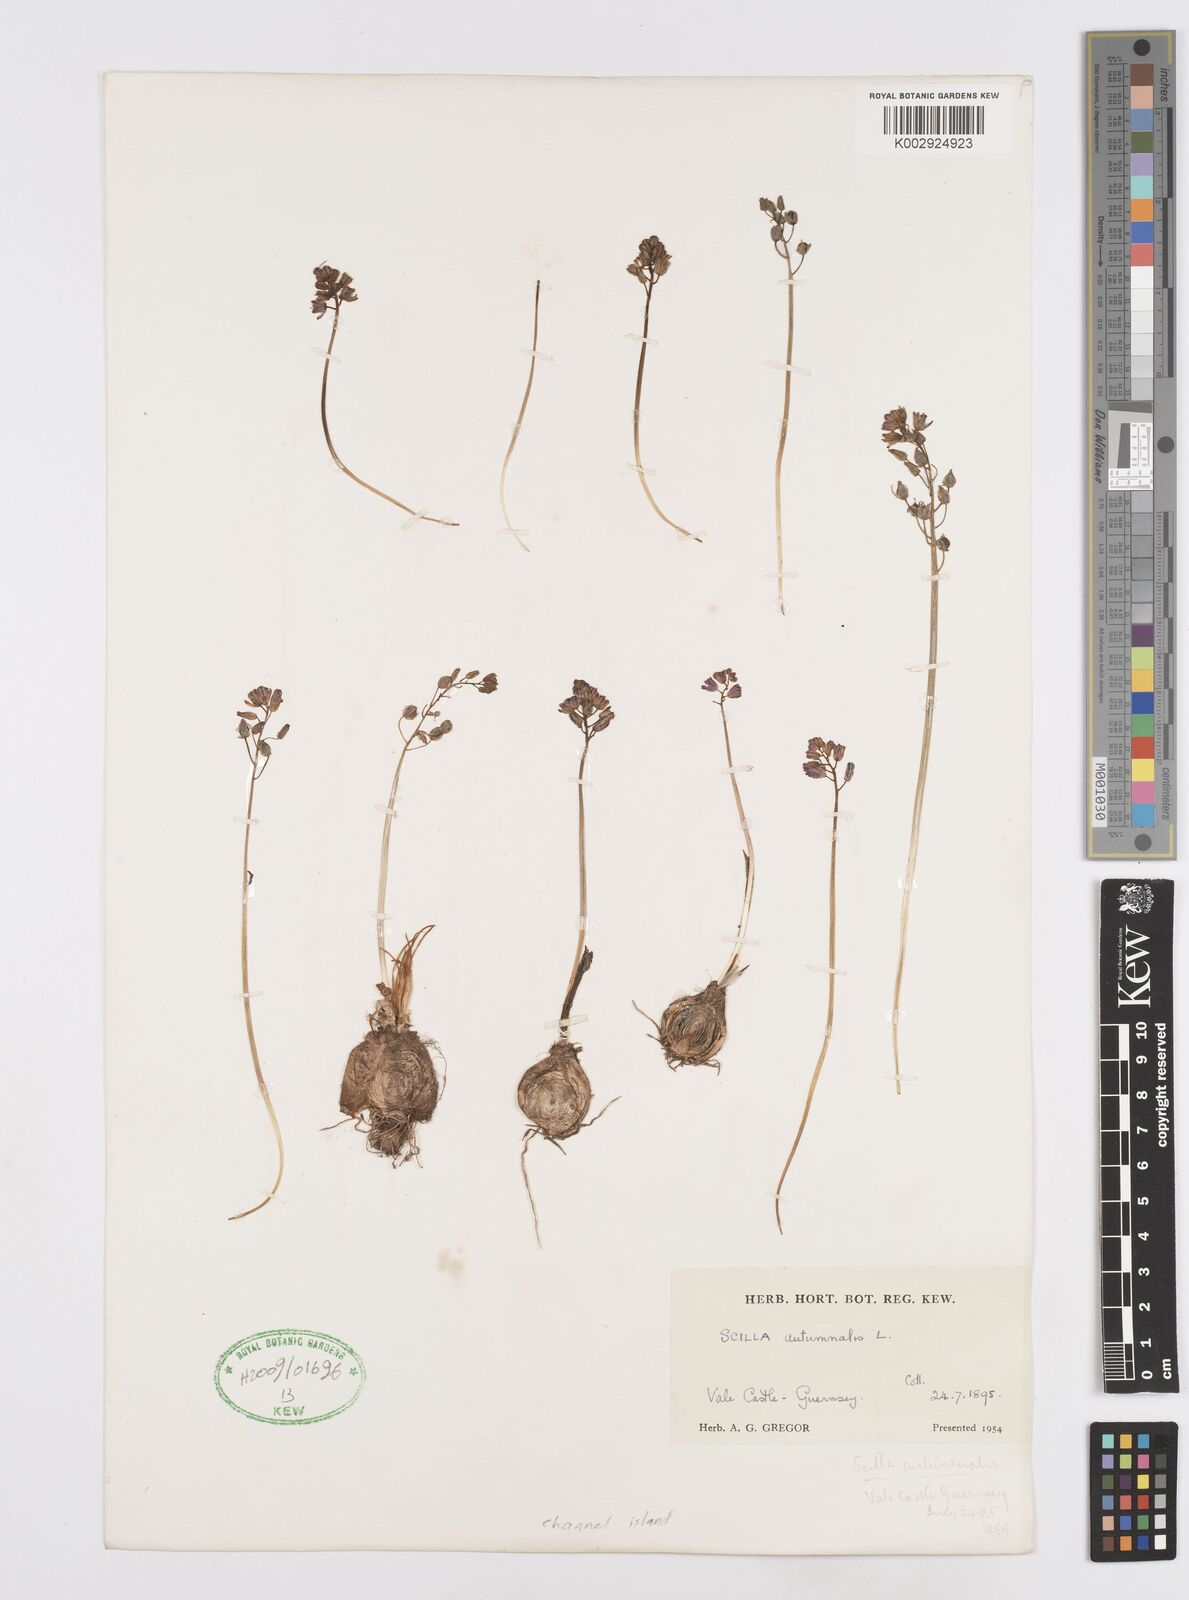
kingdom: Plantae
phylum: Tracheophyta
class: Liliopsida
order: Asparagales
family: Asparagaceae
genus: Prospero
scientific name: Prospero autumnale
